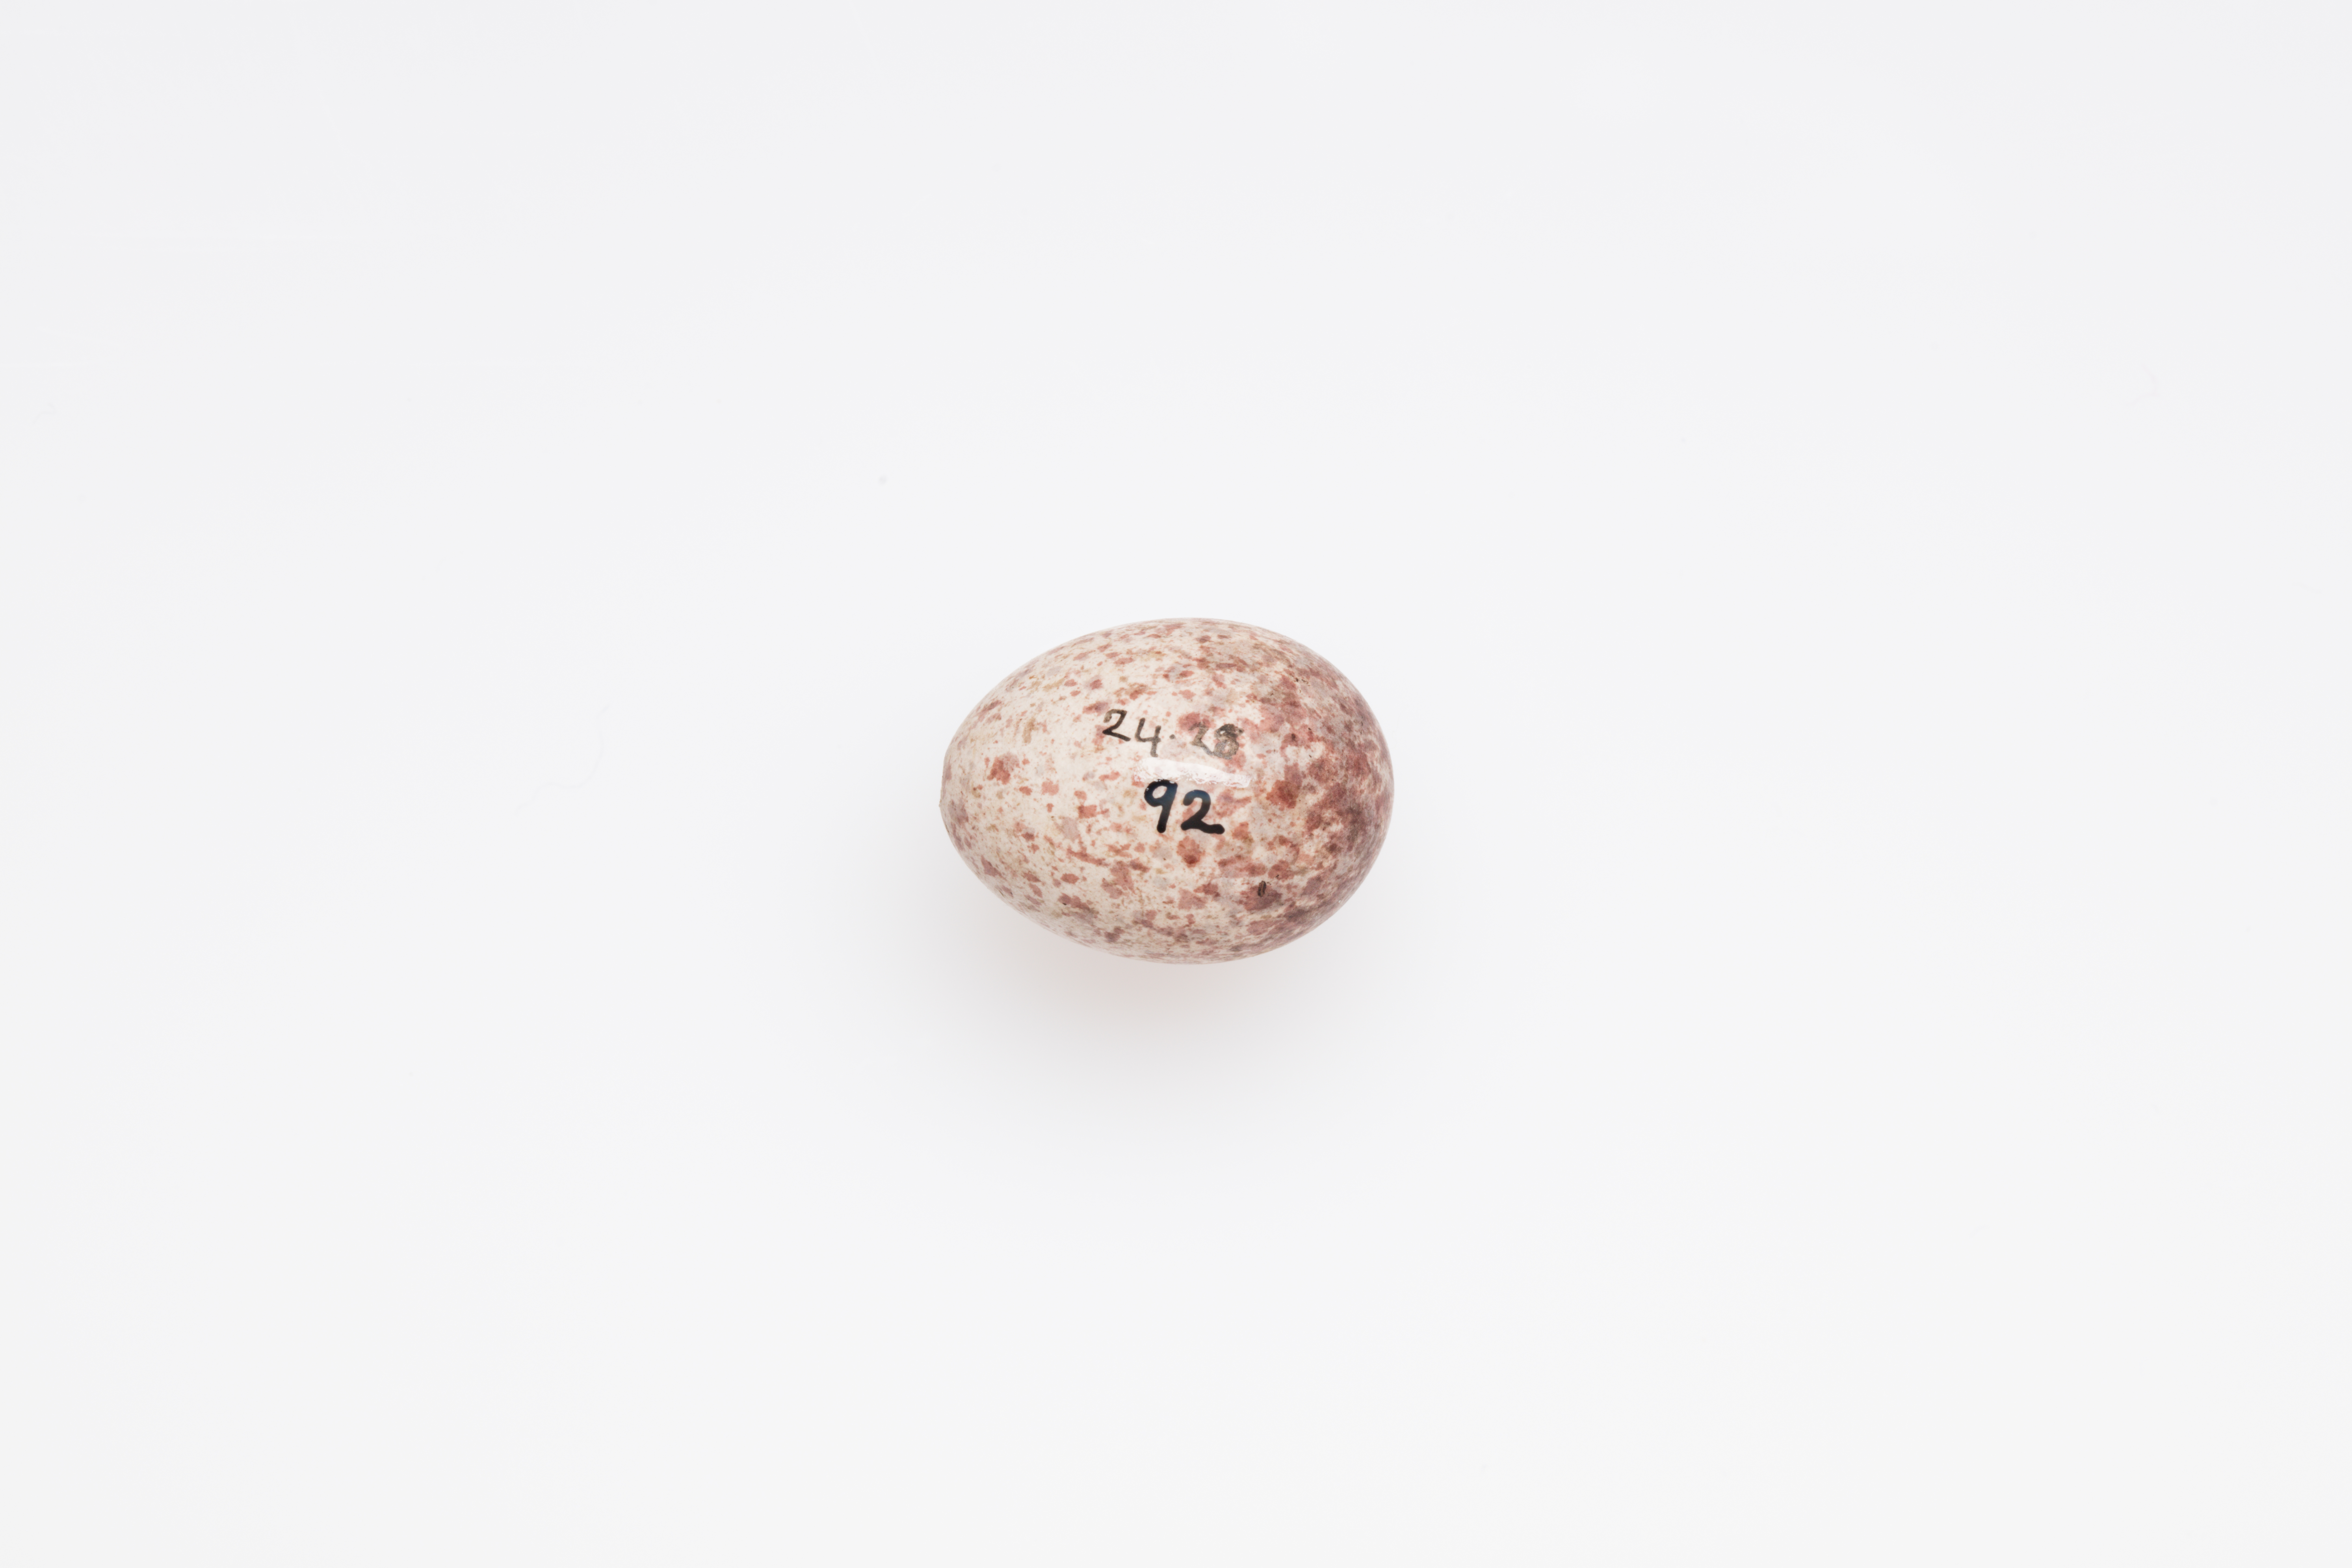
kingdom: Animalia
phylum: Chordata
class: Aves
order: Passeriformes
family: Locustellidae
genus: Megalurus
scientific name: Megalurus punctatus
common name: New zealand fernbird
